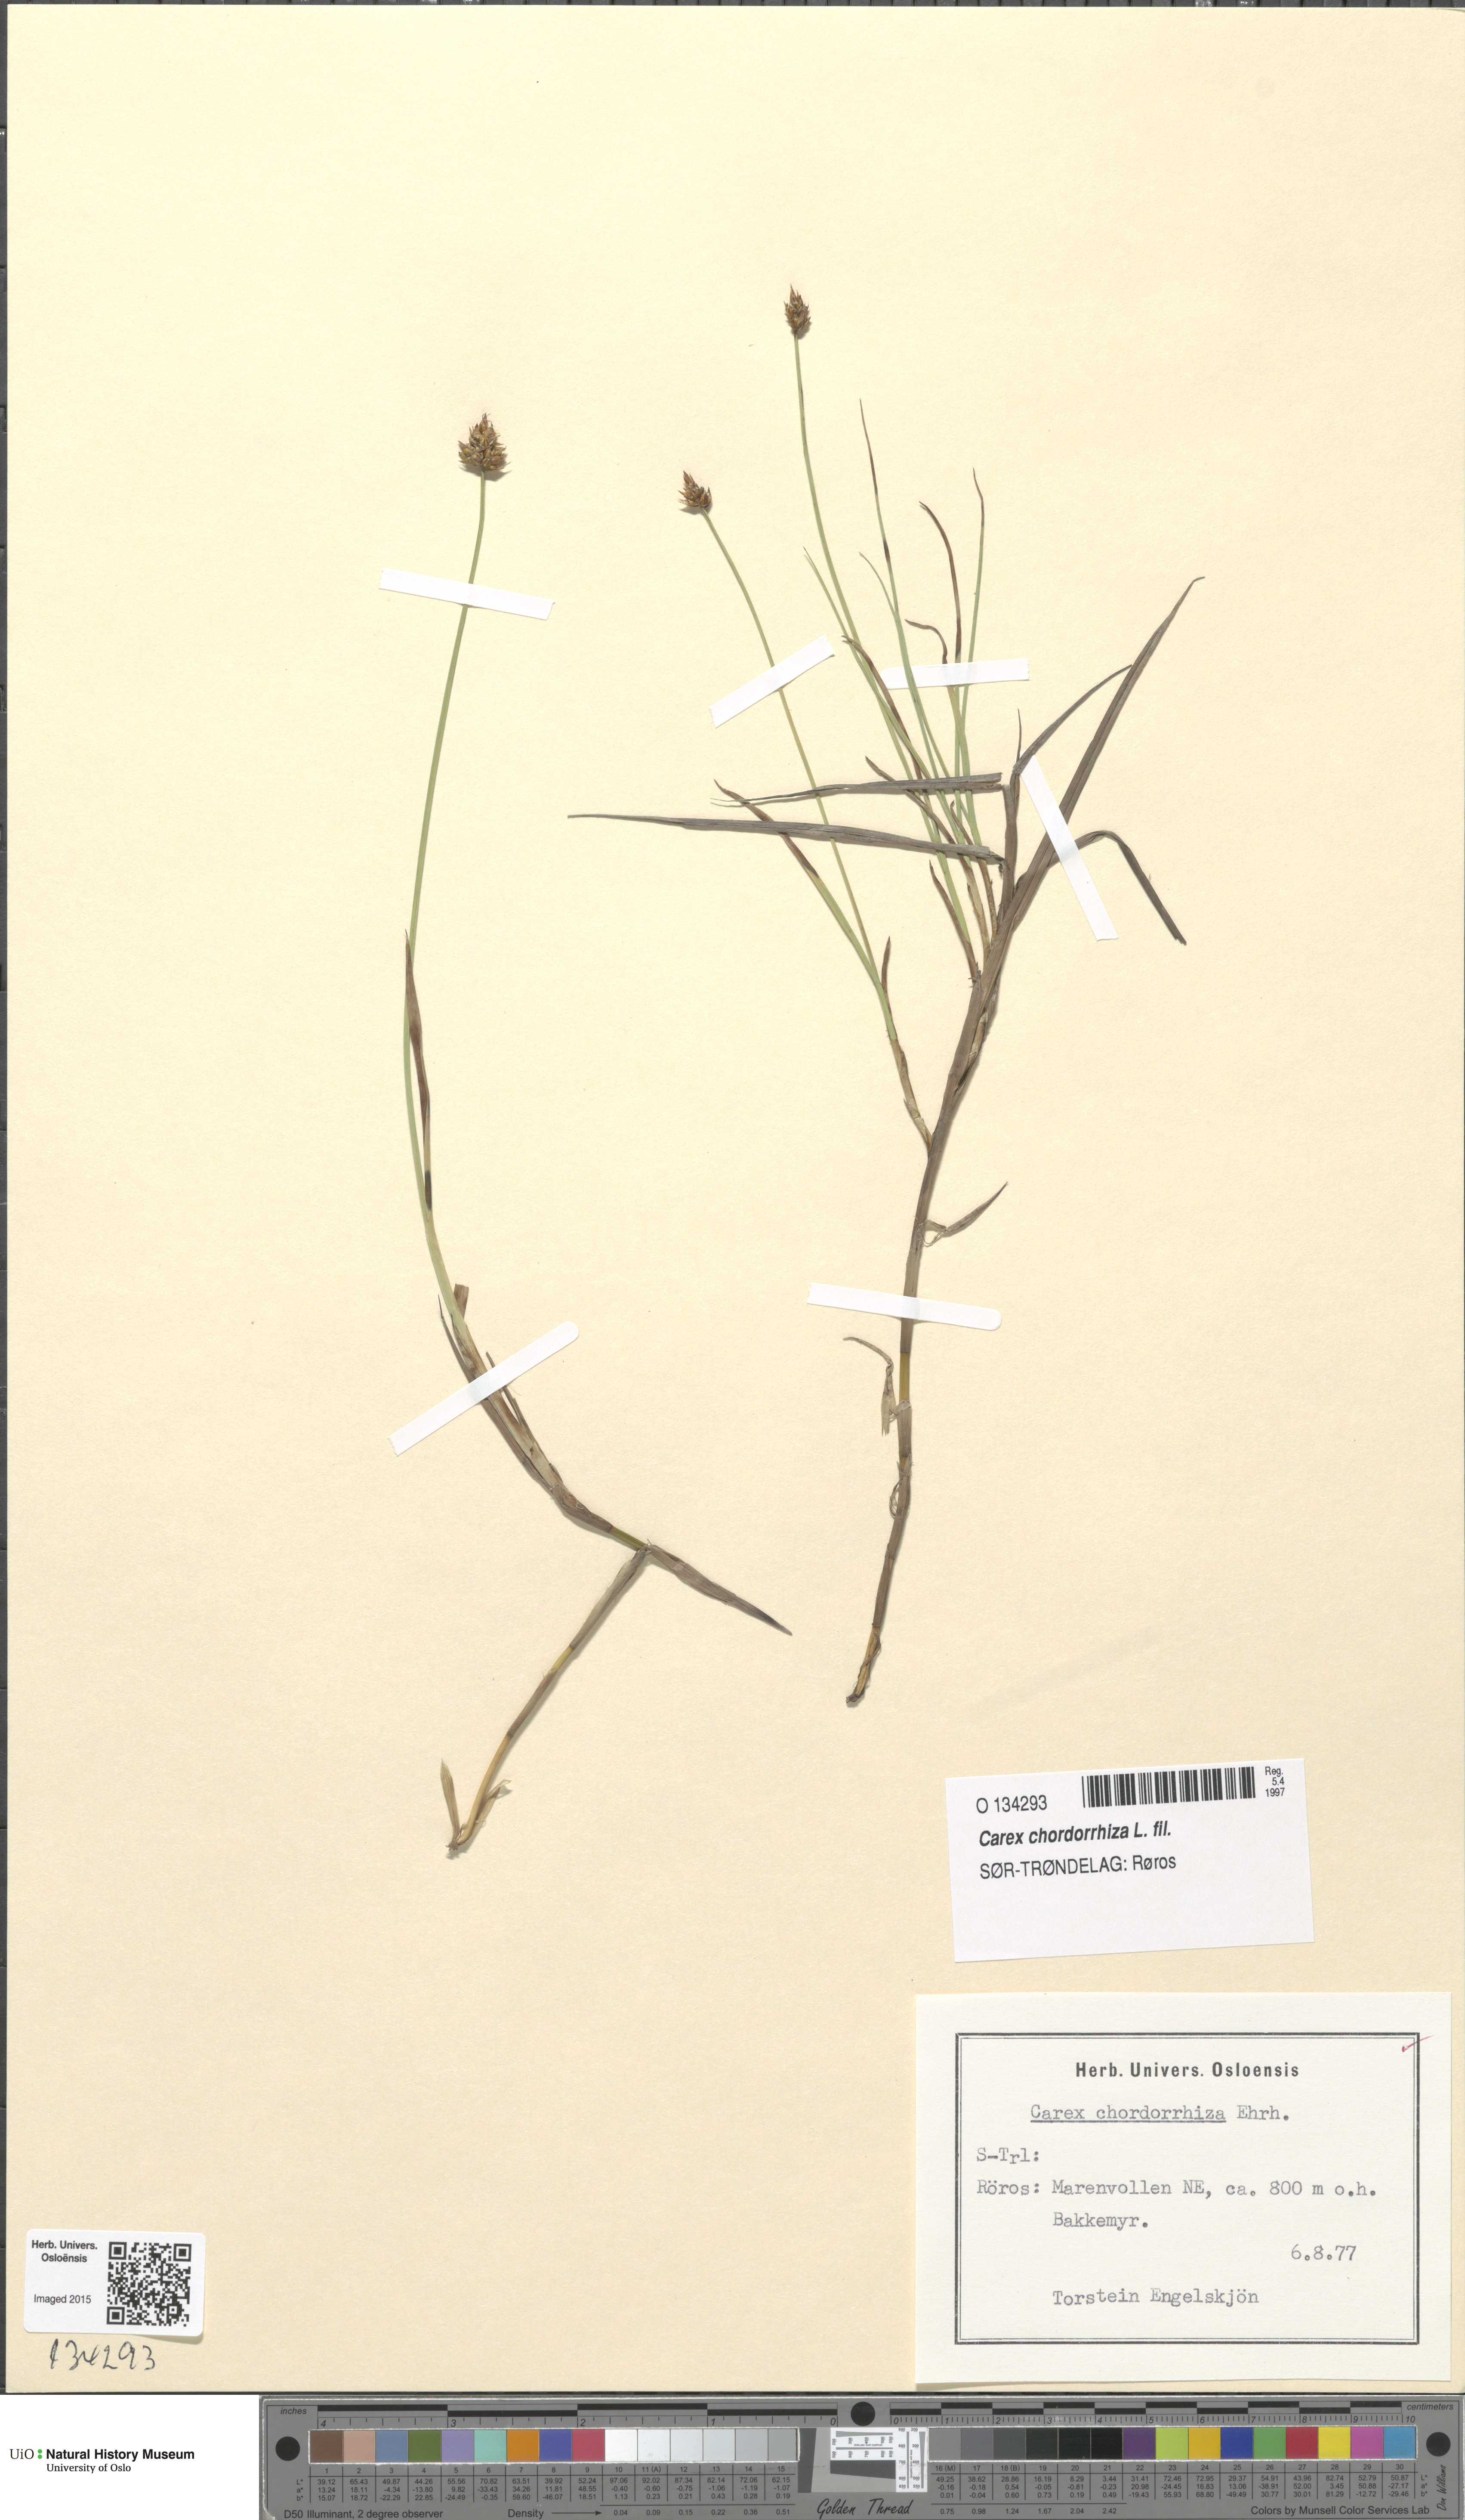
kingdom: Plantae
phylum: Tracheophyta
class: Liliopsida
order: Poales
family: Cyperaceae
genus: Carex
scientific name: Carex chordorrhiza
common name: String sedge
